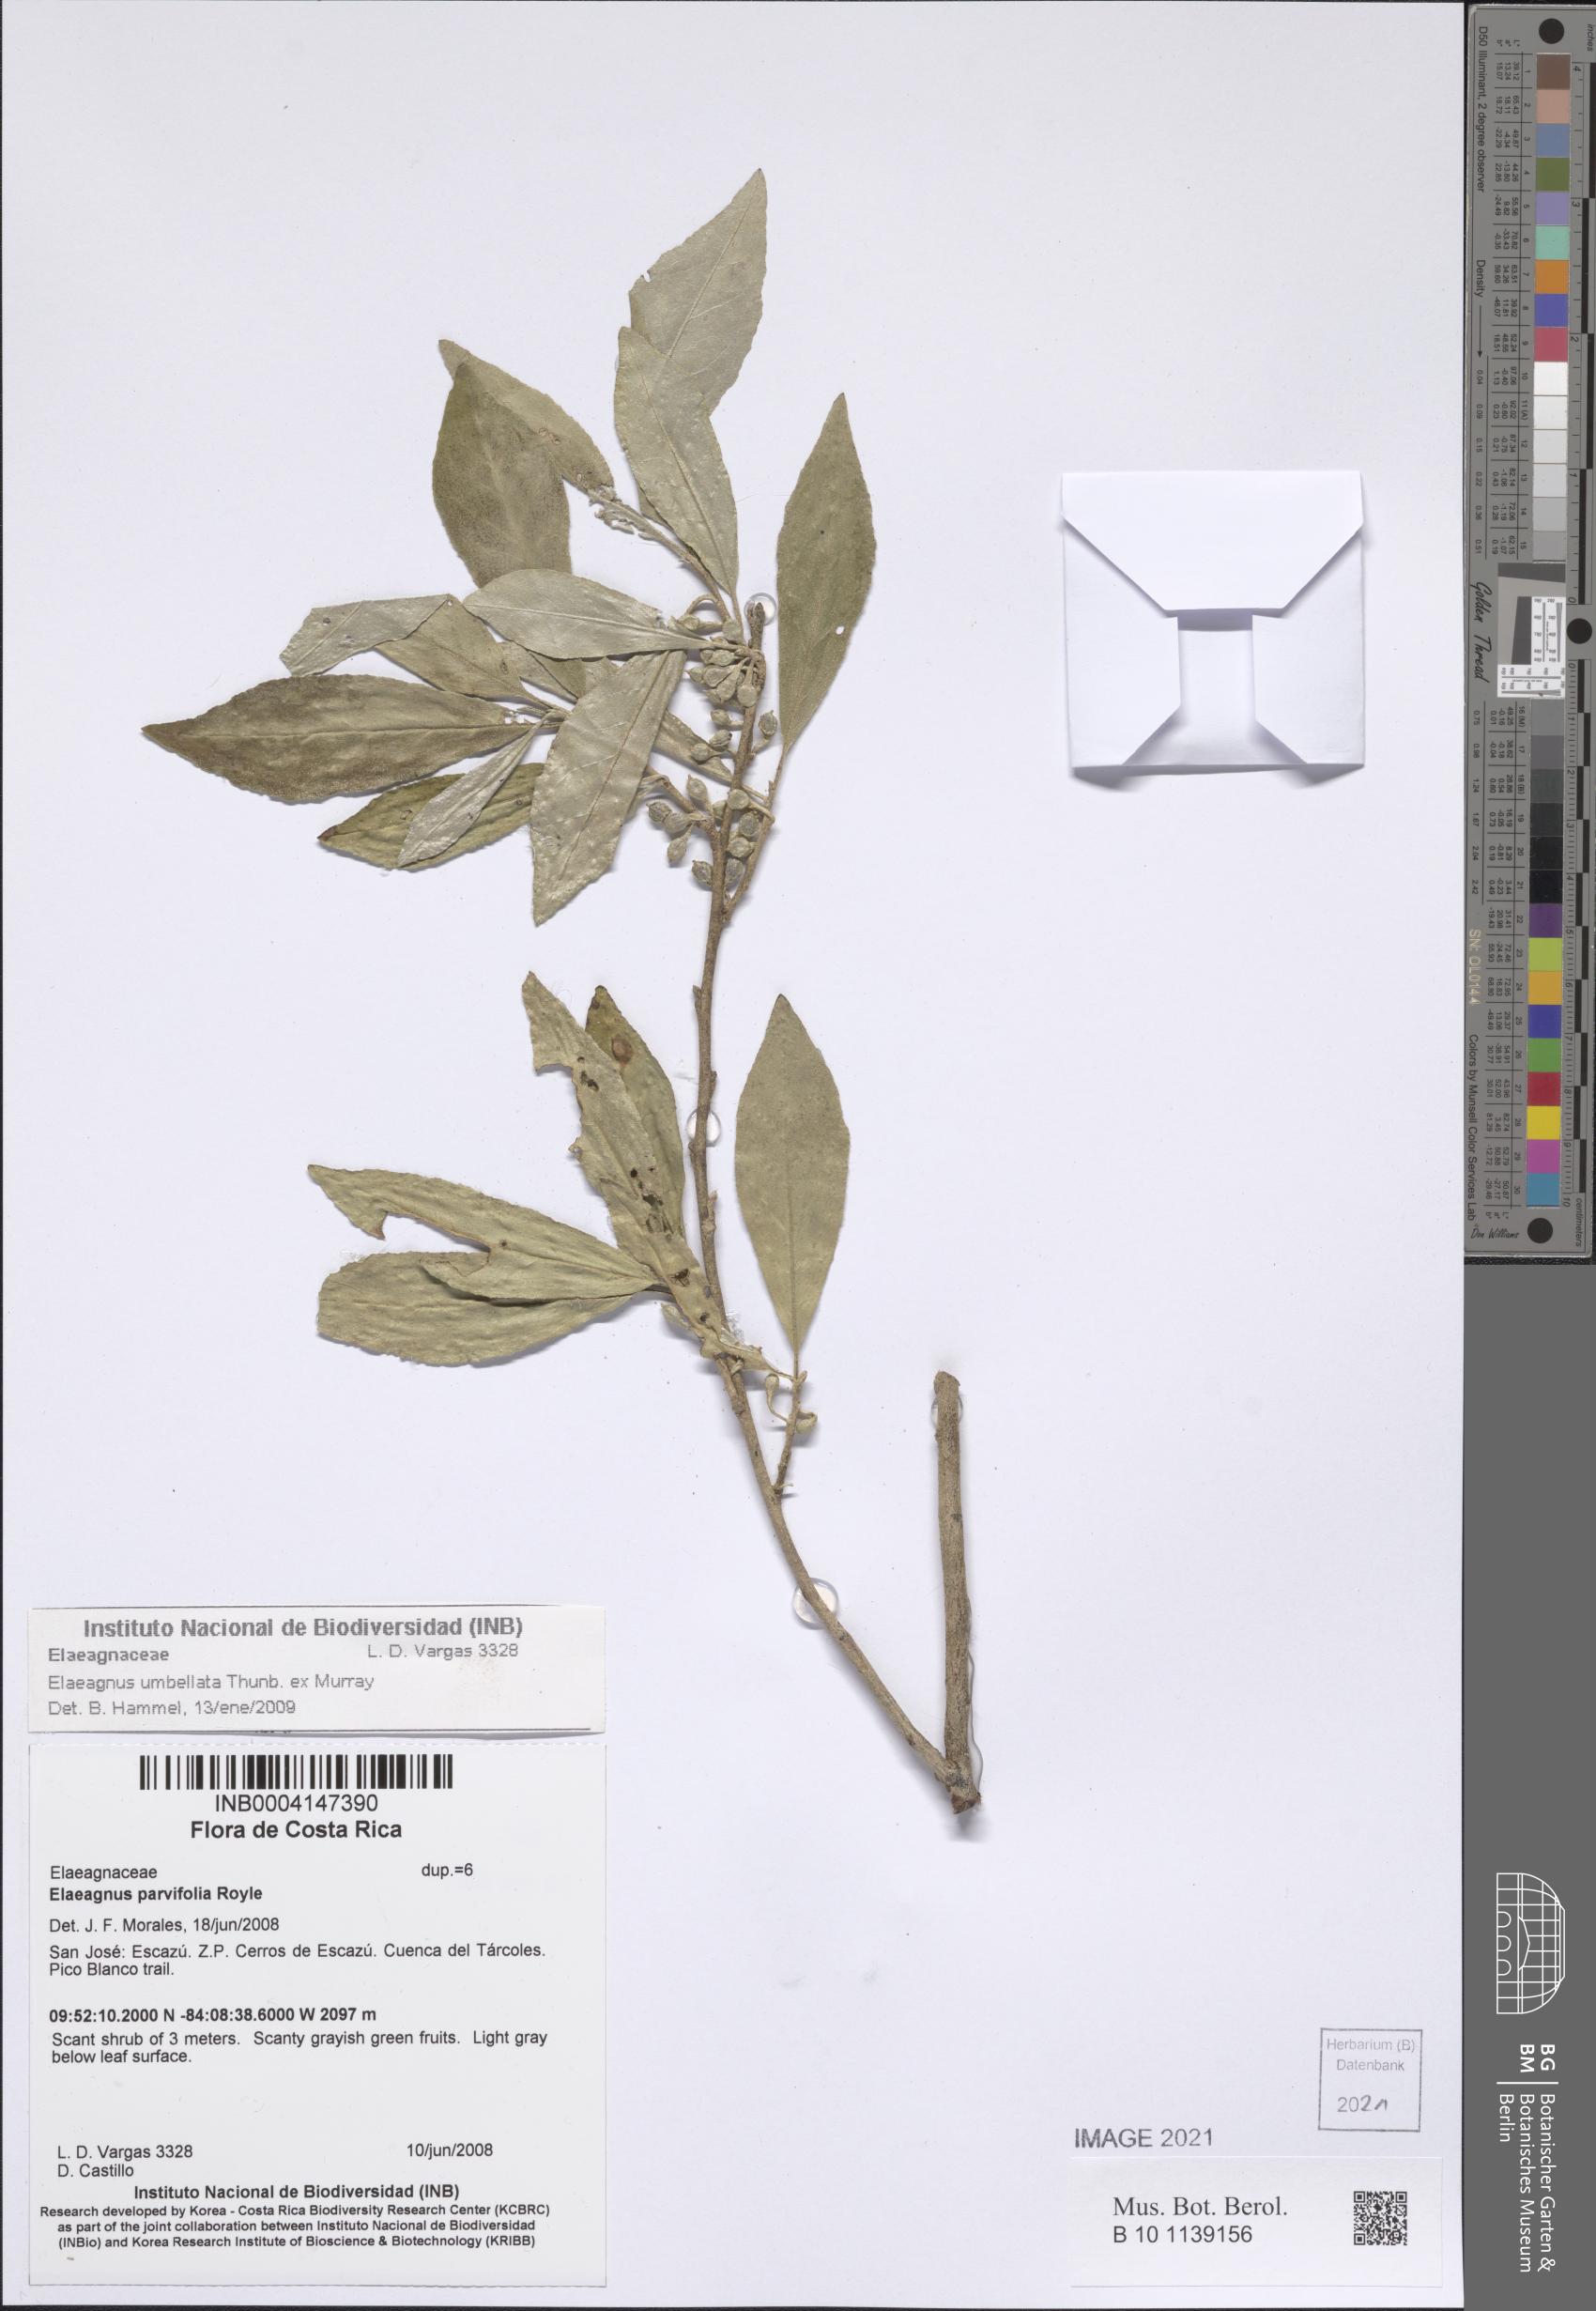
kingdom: Plantae
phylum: Tracheophyta
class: Magnoliopsida
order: Rosales
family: Elaeagnaceae
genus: Elaeagnus
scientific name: Elaeagnus umbellata
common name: Autumn olive
